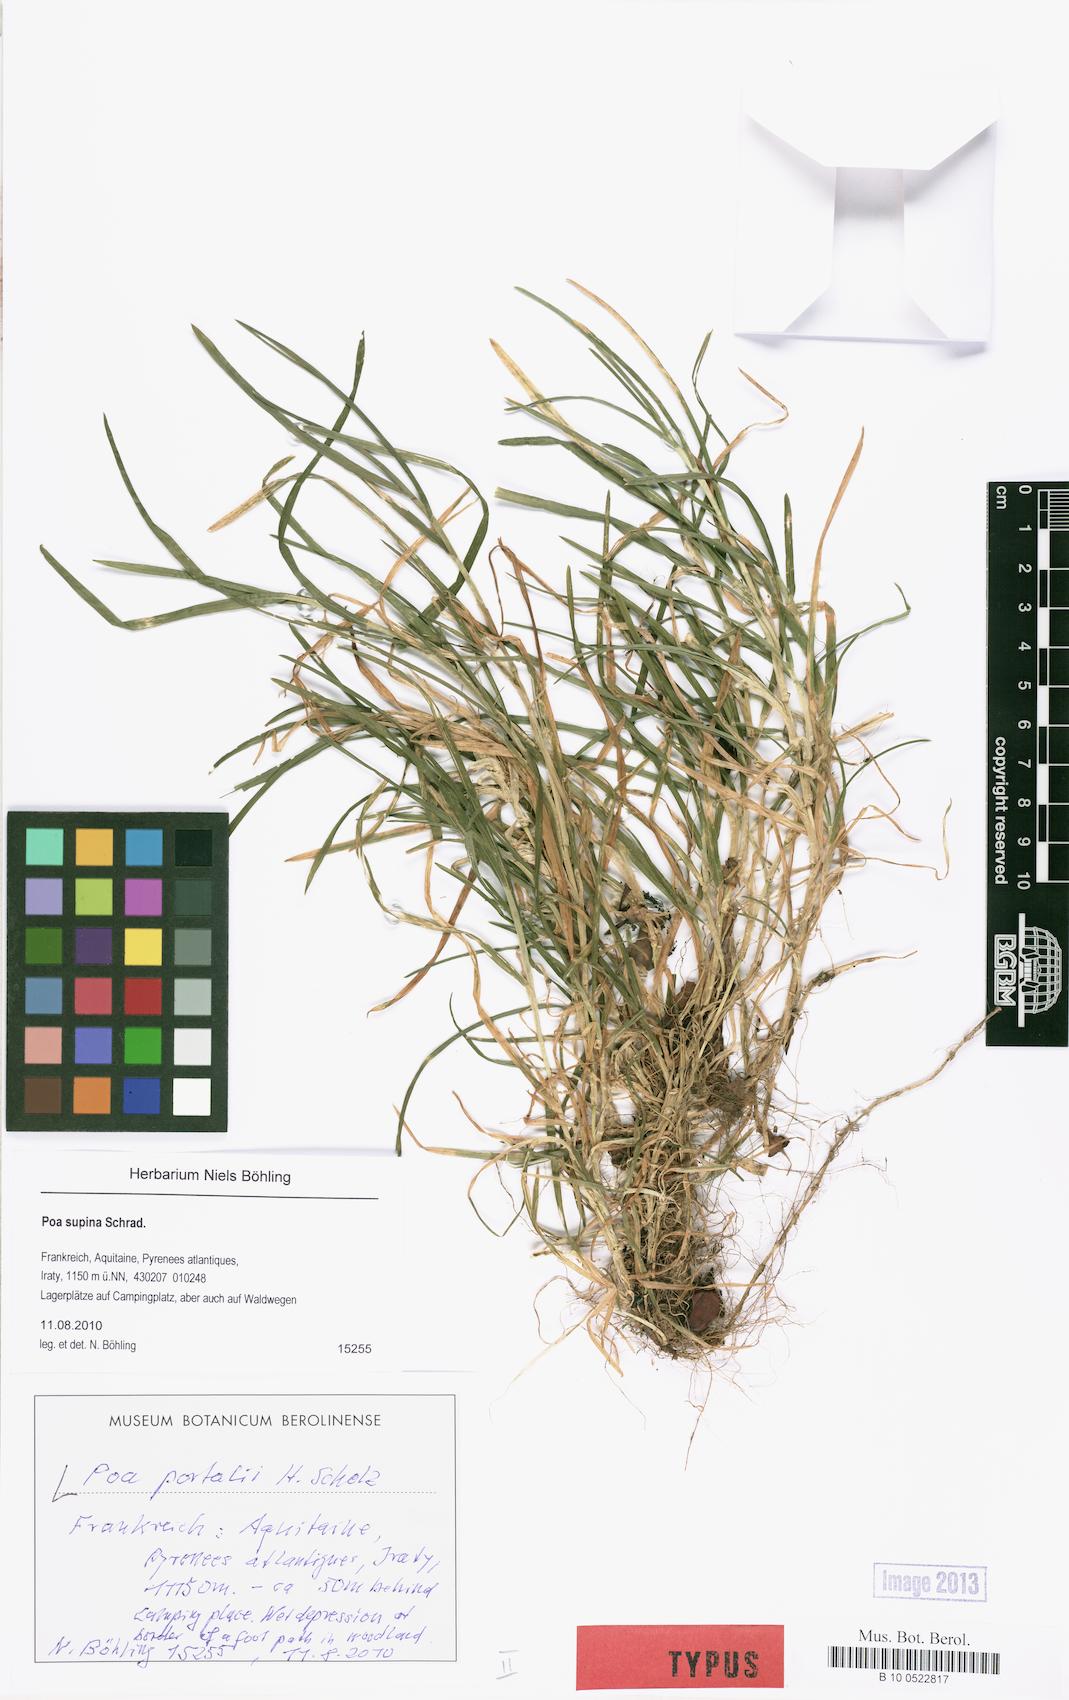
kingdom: Plantae
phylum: Tracheophyta
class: Liliopsida
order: Poales
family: Poaceae
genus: Poa
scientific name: Poa trivialis
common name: Rough bluegrass
